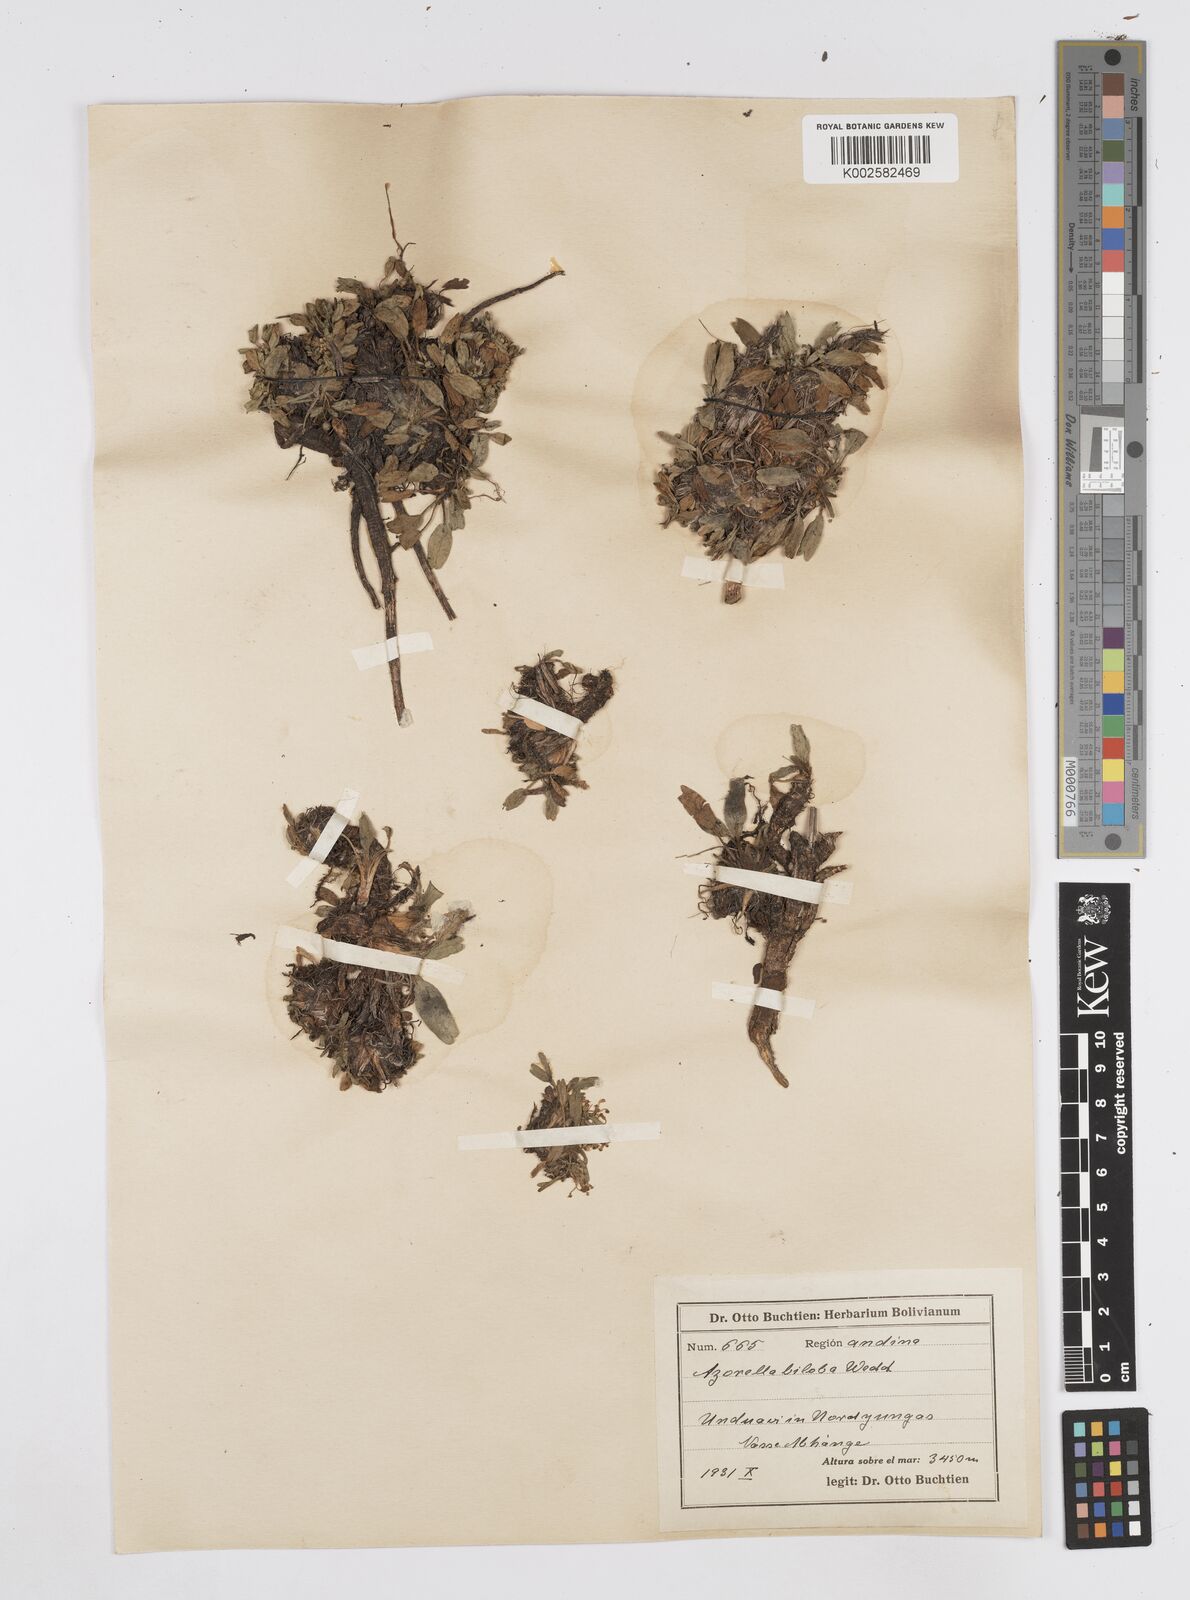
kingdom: Plantae
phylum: Tracheophyta
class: Magnoliopsida
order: Apiales
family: Apiaceae
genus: Azorella
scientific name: Azorella biloba
